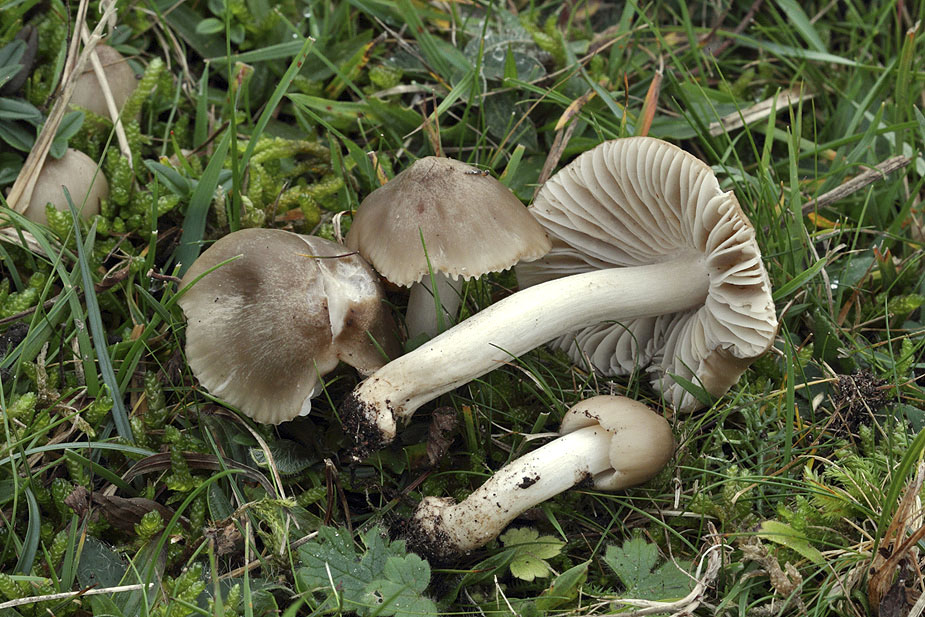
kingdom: Fungi
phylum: Basidiomycota
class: Agaricomycetes
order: Agaricales
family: Hygrophoraceae
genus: Cuphophyllus
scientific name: Cuphophyllus fornicatus
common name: gråbrun vokshat
